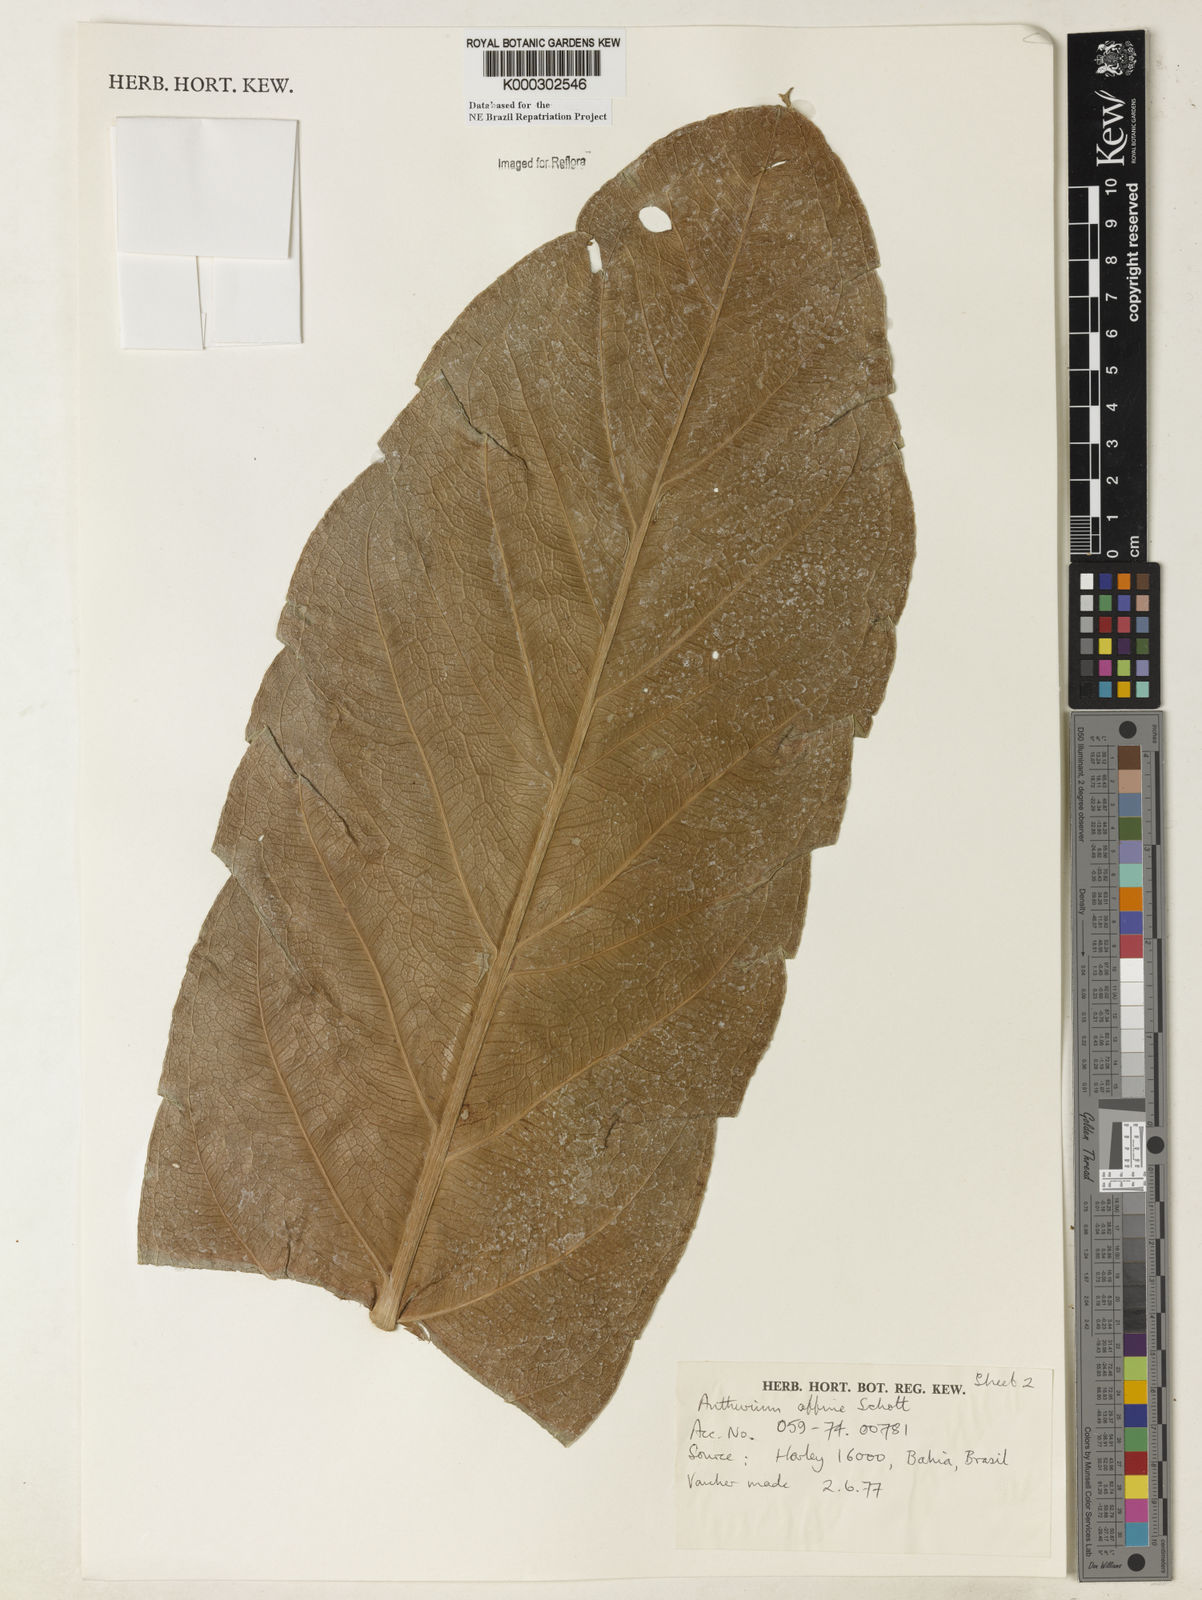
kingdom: Plantae
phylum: Tracheophyta
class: Liliopsida
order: Alismatales
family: Araceae
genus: Anthurium
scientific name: Anthurium affine
